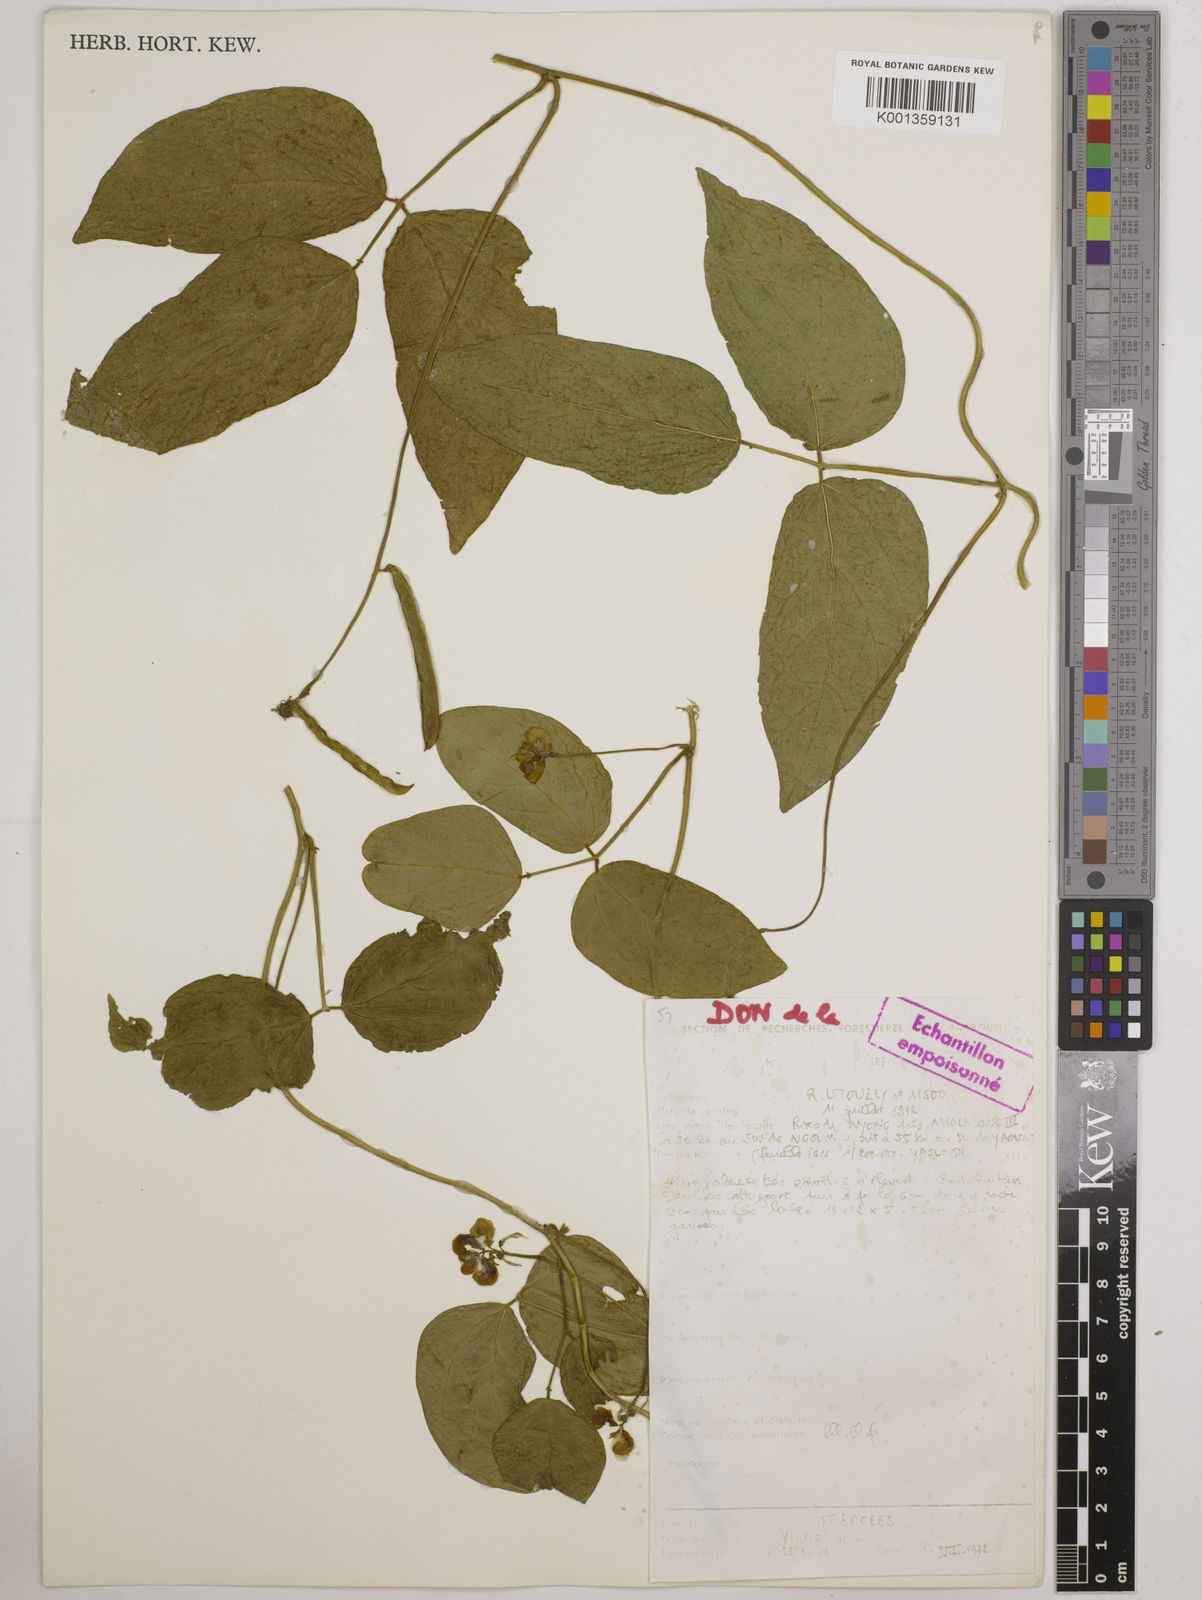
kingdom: Plantae
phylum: Tracheophyta
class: Magnoliopsida
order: Fabales
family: Fabaceae
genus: Vigna
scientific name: Vigna juruana
